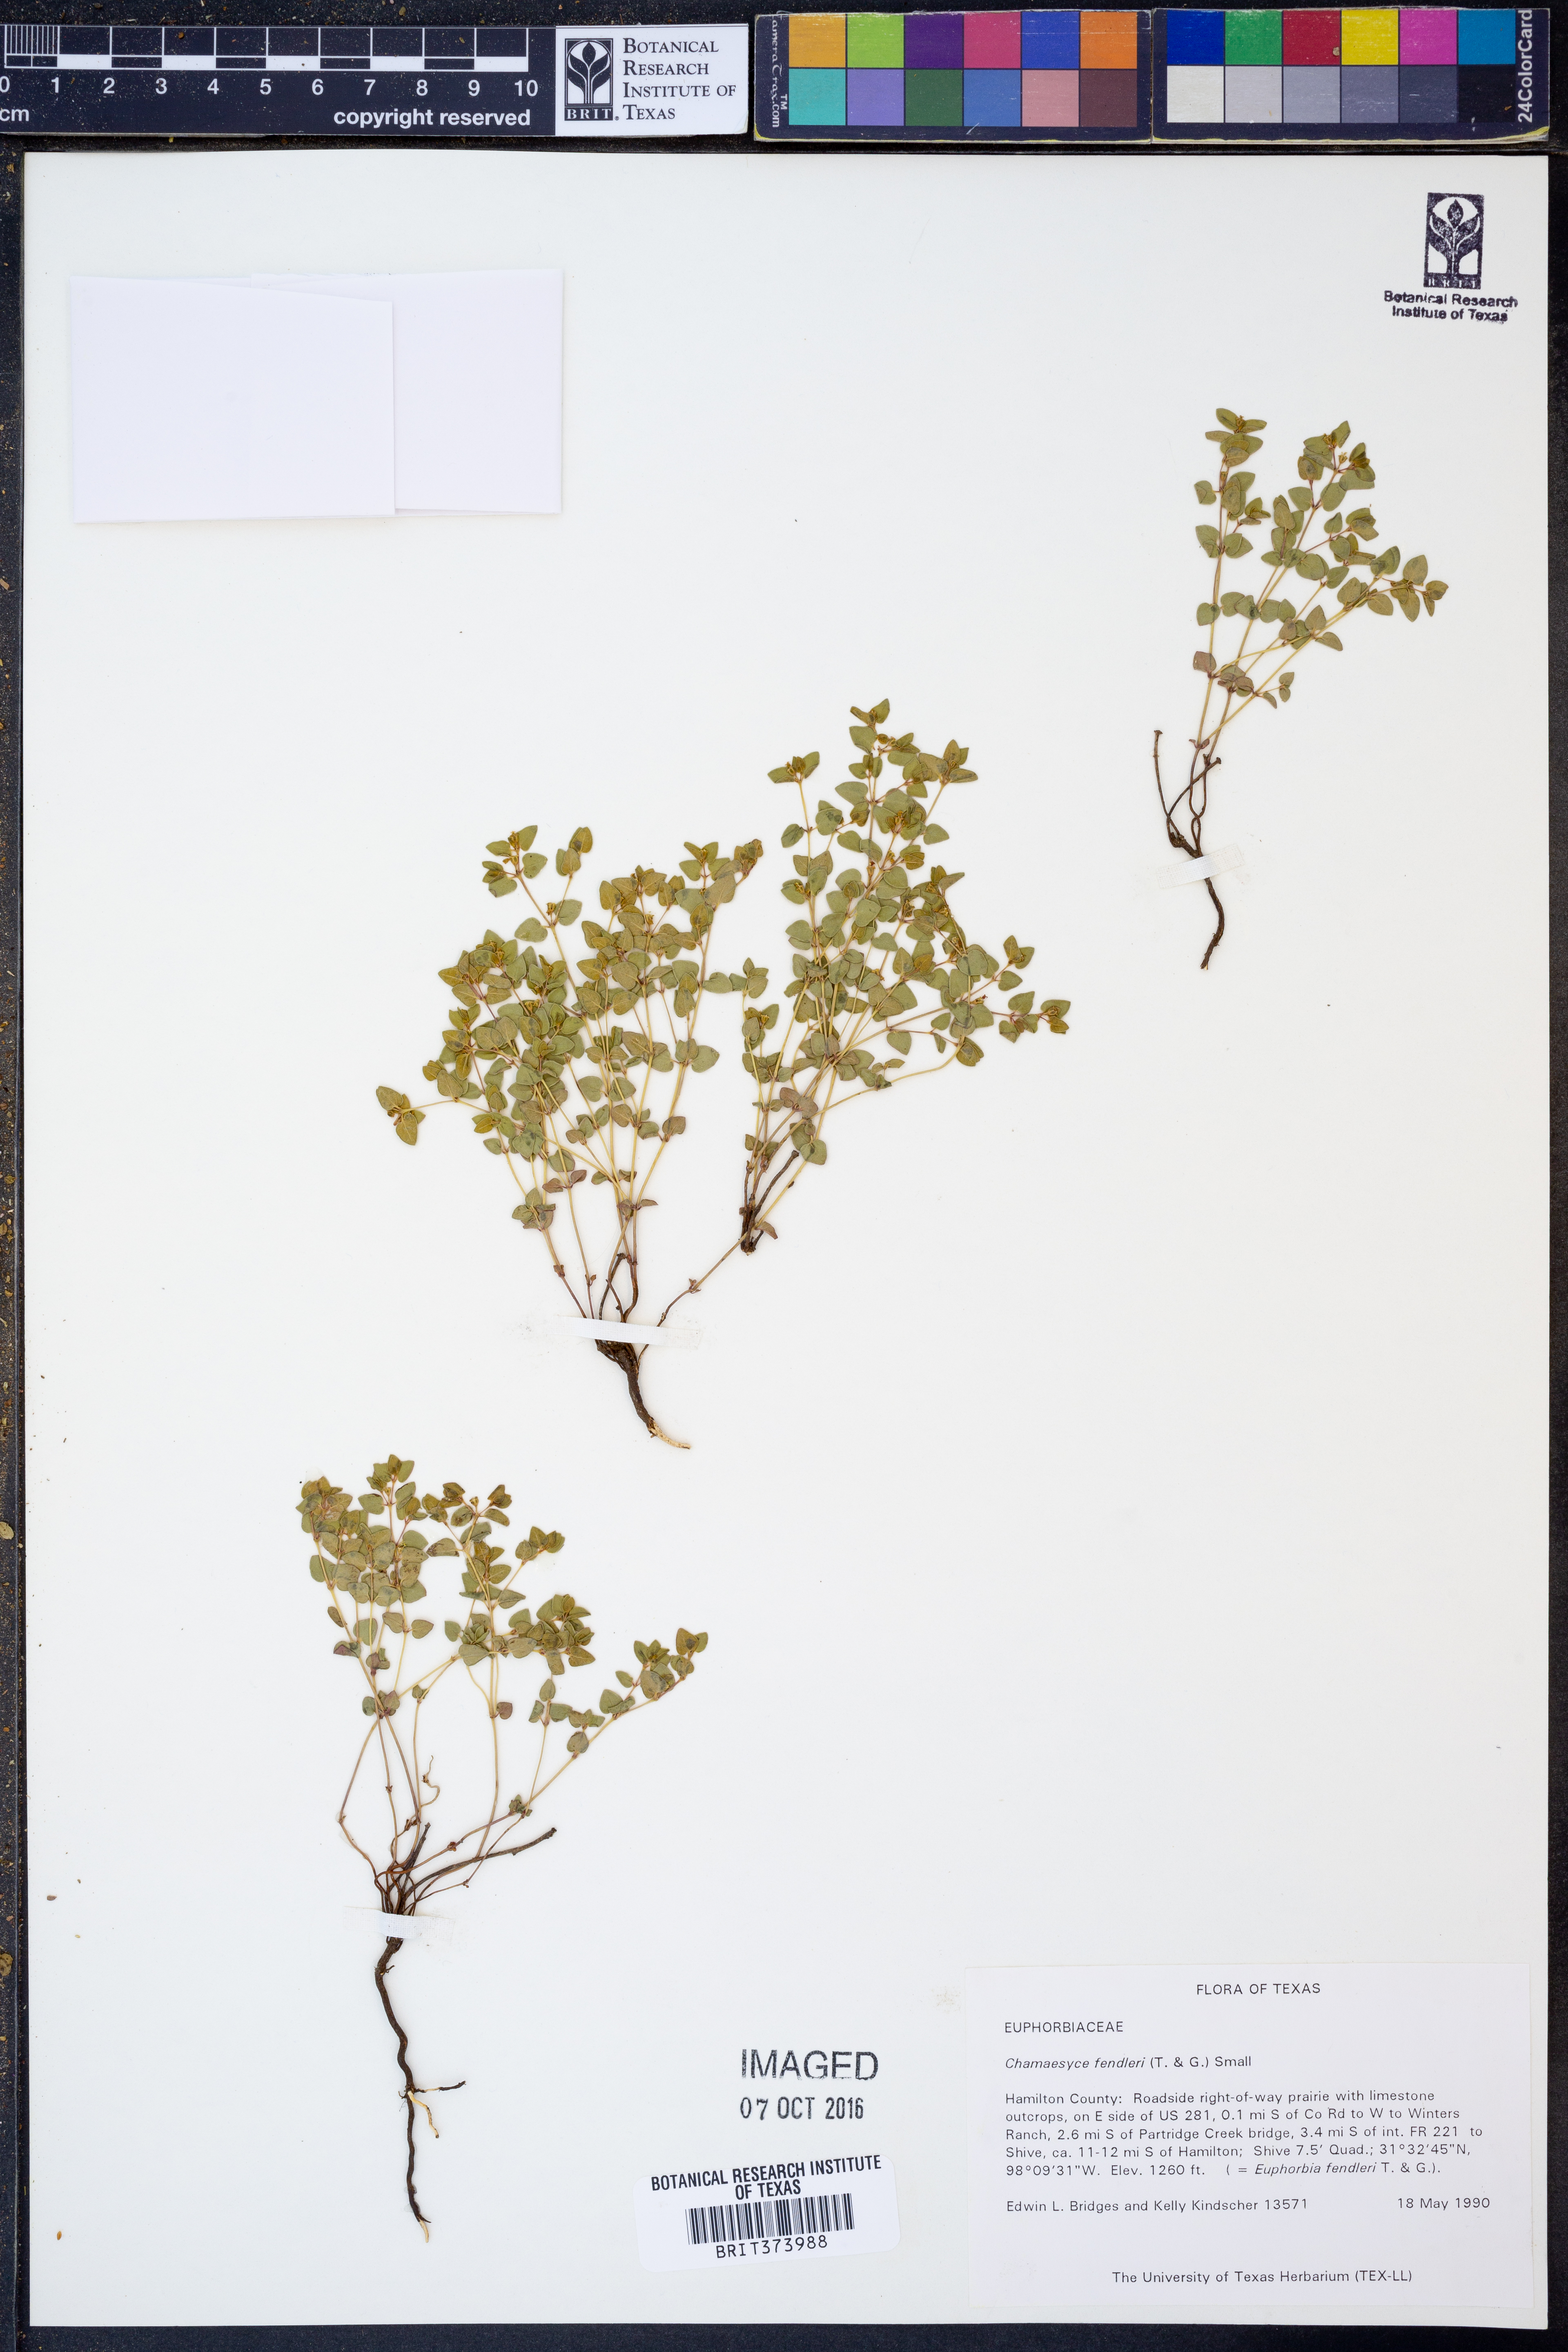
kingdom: Plantae
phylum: Tracheophyta
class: Magnoliopsida
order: Malpighiales
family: Euphorbiaceae
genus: Euphorbia
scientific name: Euphorbia fendleri
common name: Fendler's euphorbia
